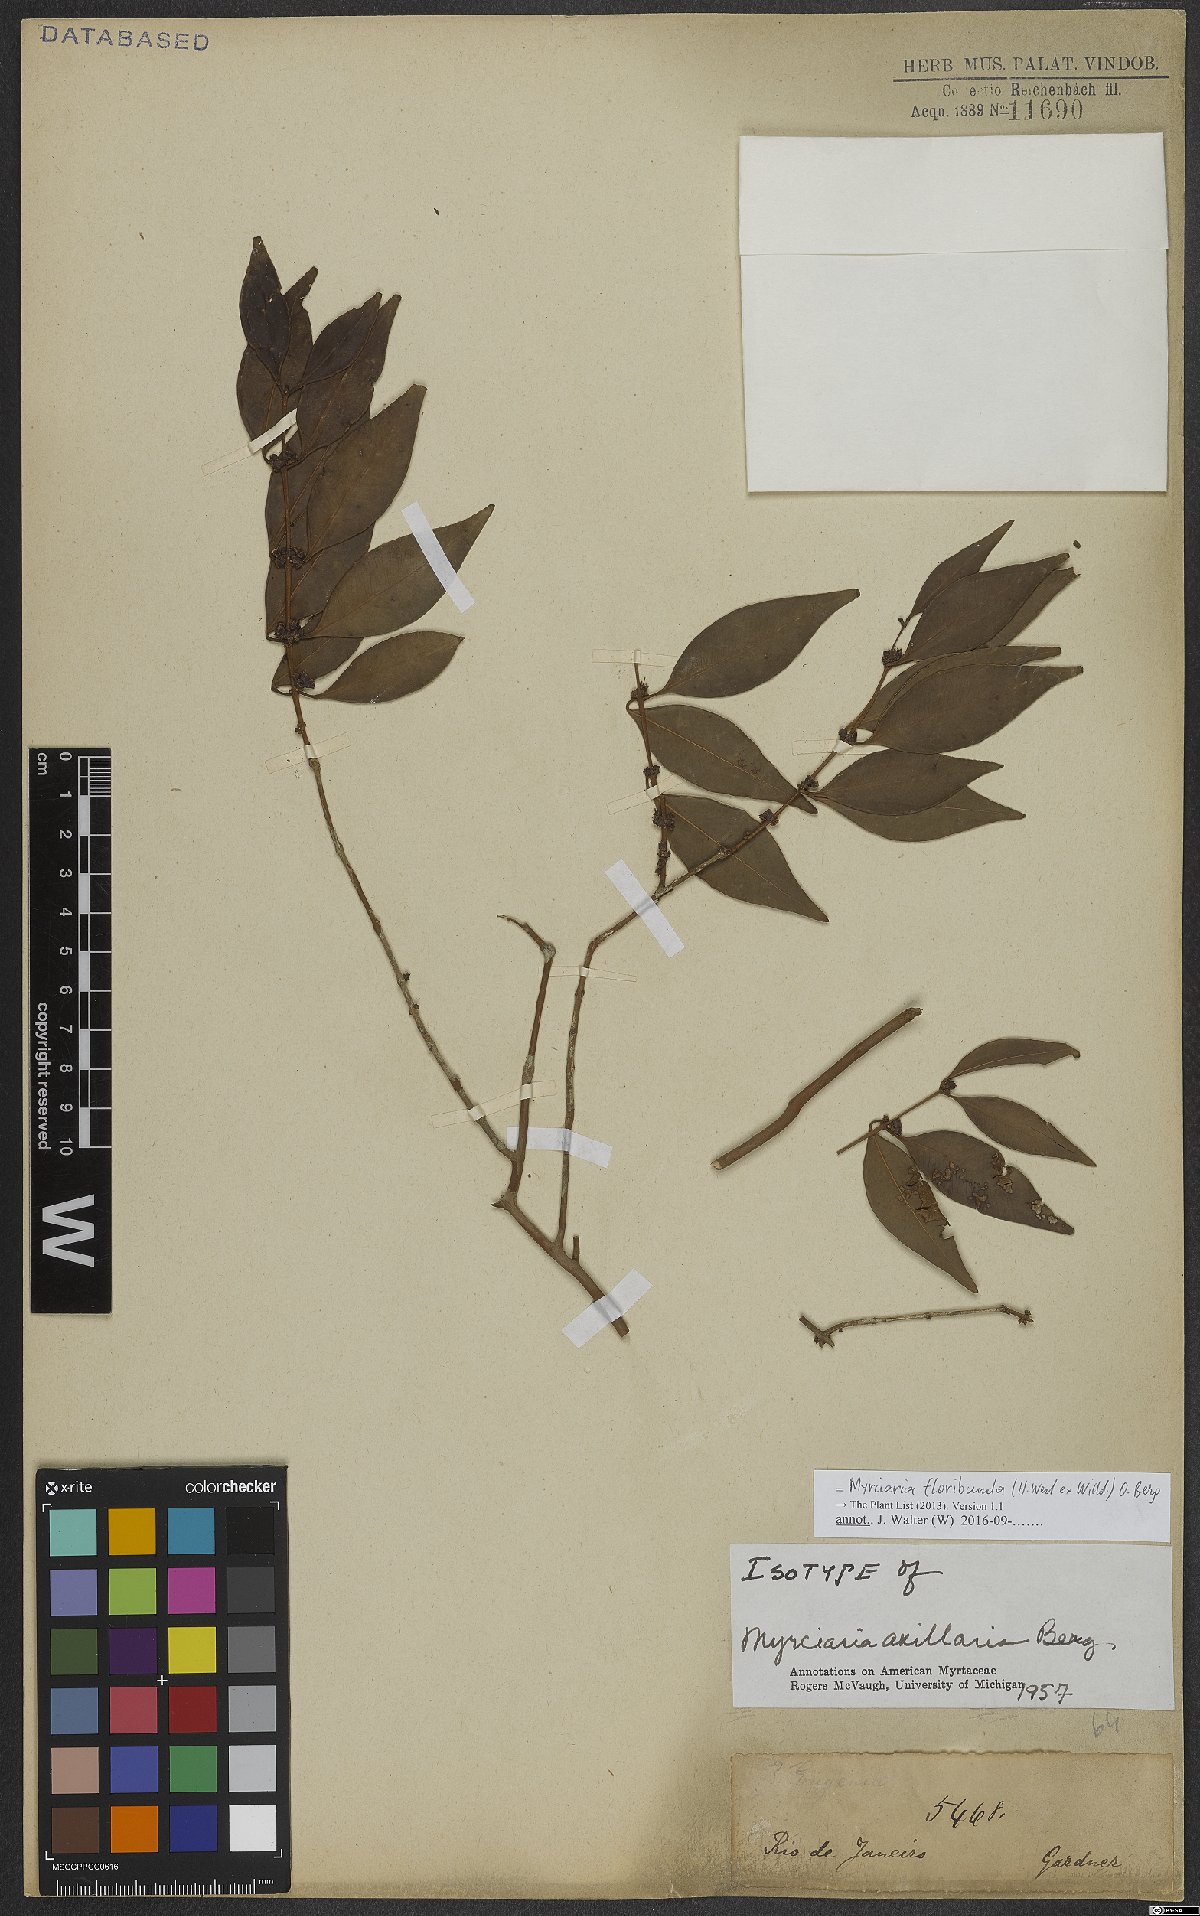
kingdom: Plantae
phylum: Tracheophyta
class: Magnoliopsida
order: Myrtales
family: Myrtaceae
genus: Myrciaria
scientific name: Myrciaria floribunda
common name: Guavaberry
